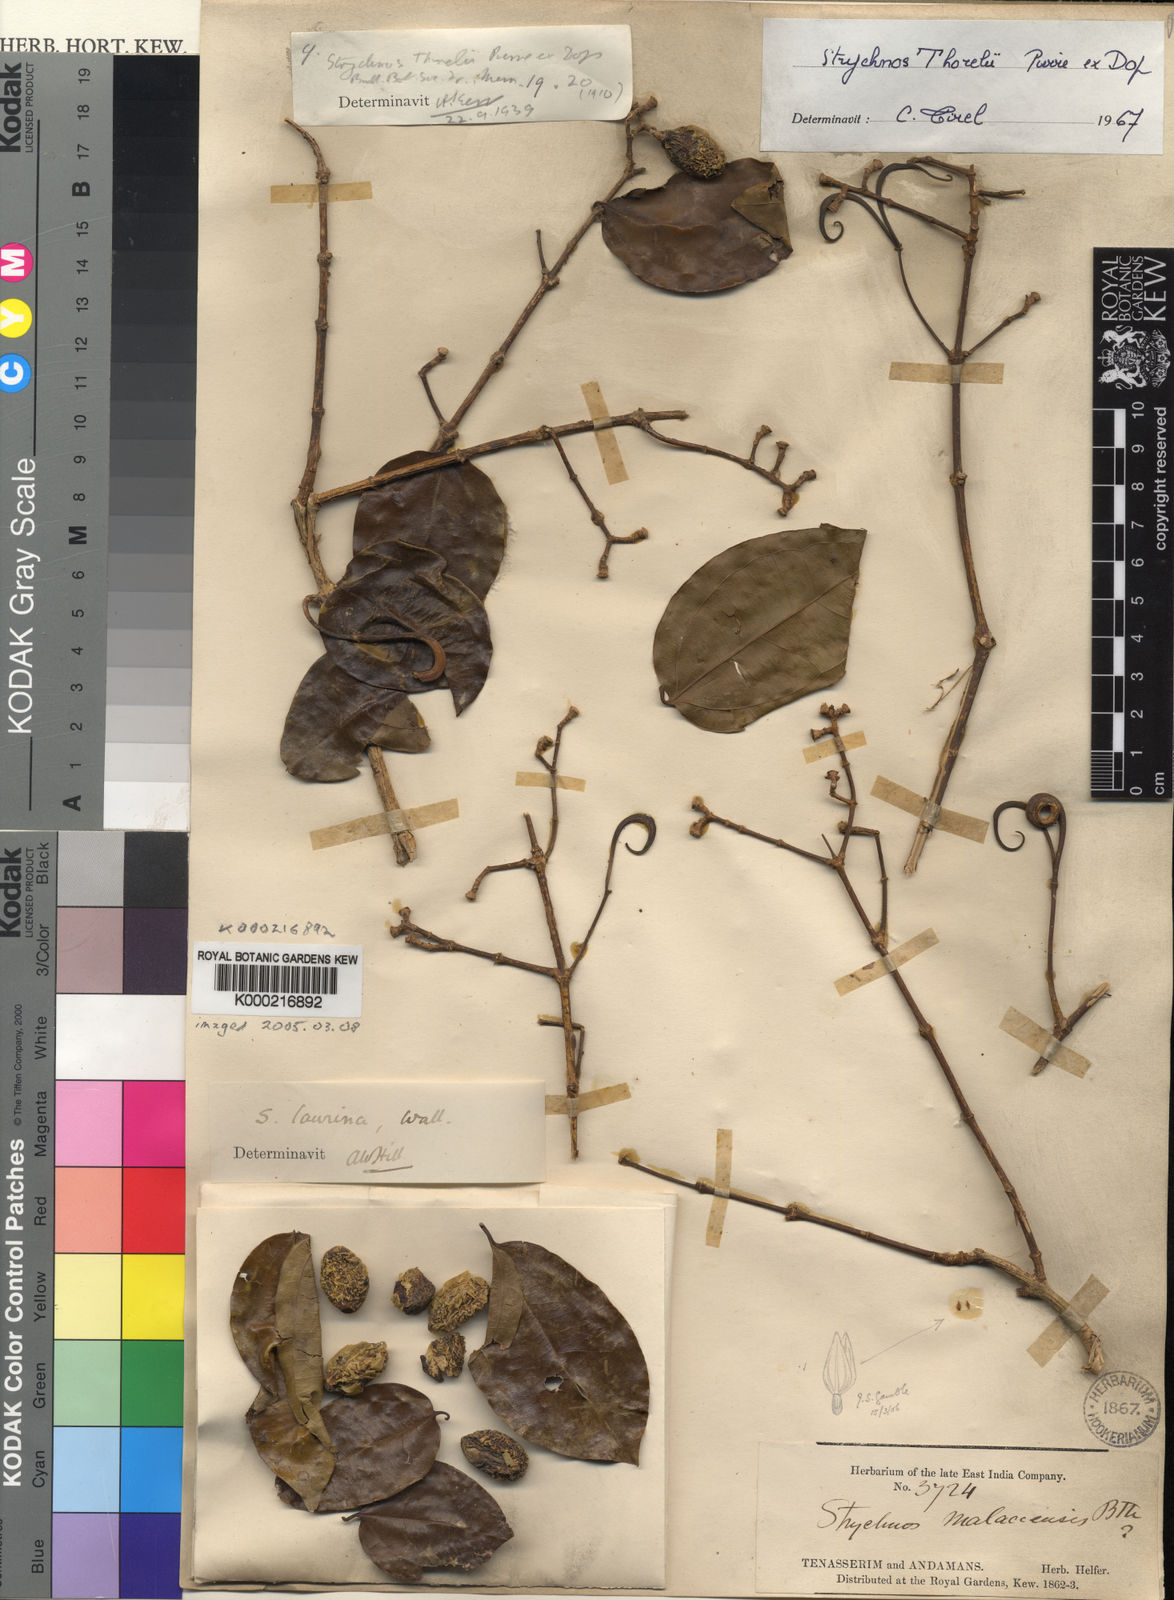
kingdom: Plantae
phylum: Tracheophyta
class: Magnoliopsida
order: Gentianales
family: Loganiaceae
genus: Strychnos
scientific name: Strychnos thorelii
